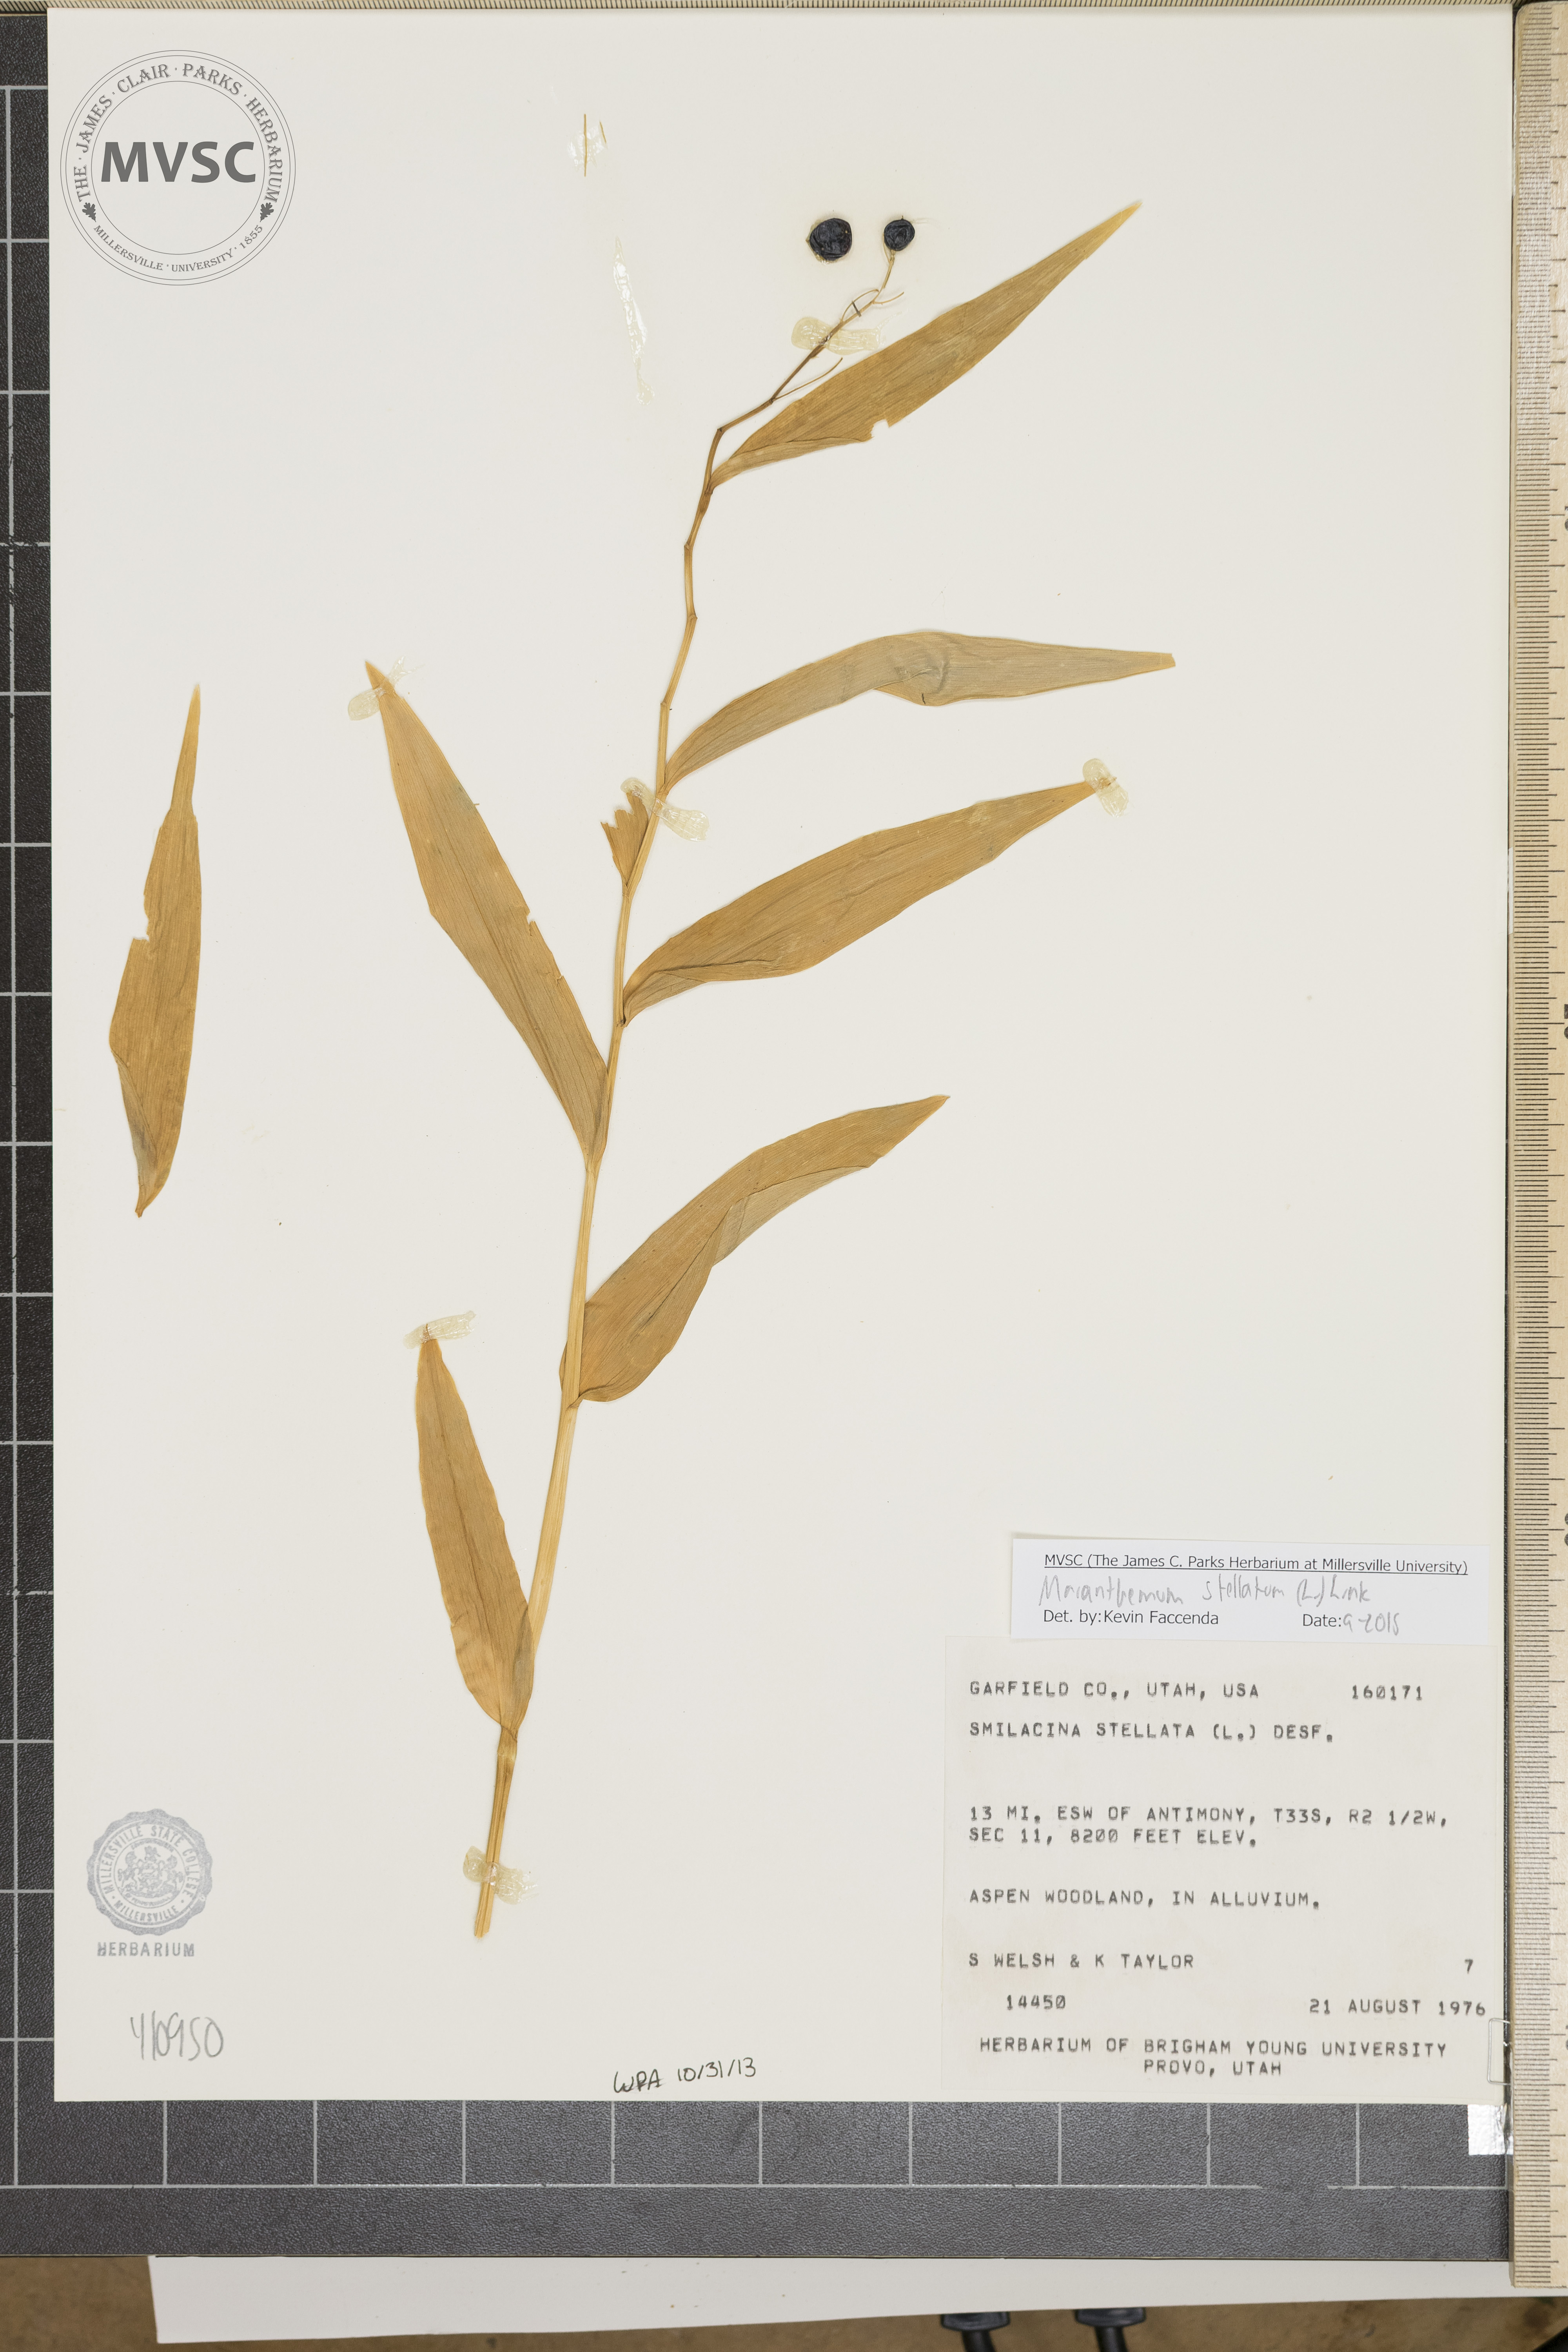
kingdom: Plantae
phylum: Tracheophyta
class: Liliopsida
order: Asparagales
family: Asparagaceae
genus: Maianthemum
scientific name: Maianthemum stellatum
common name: Little false solomon's seal
